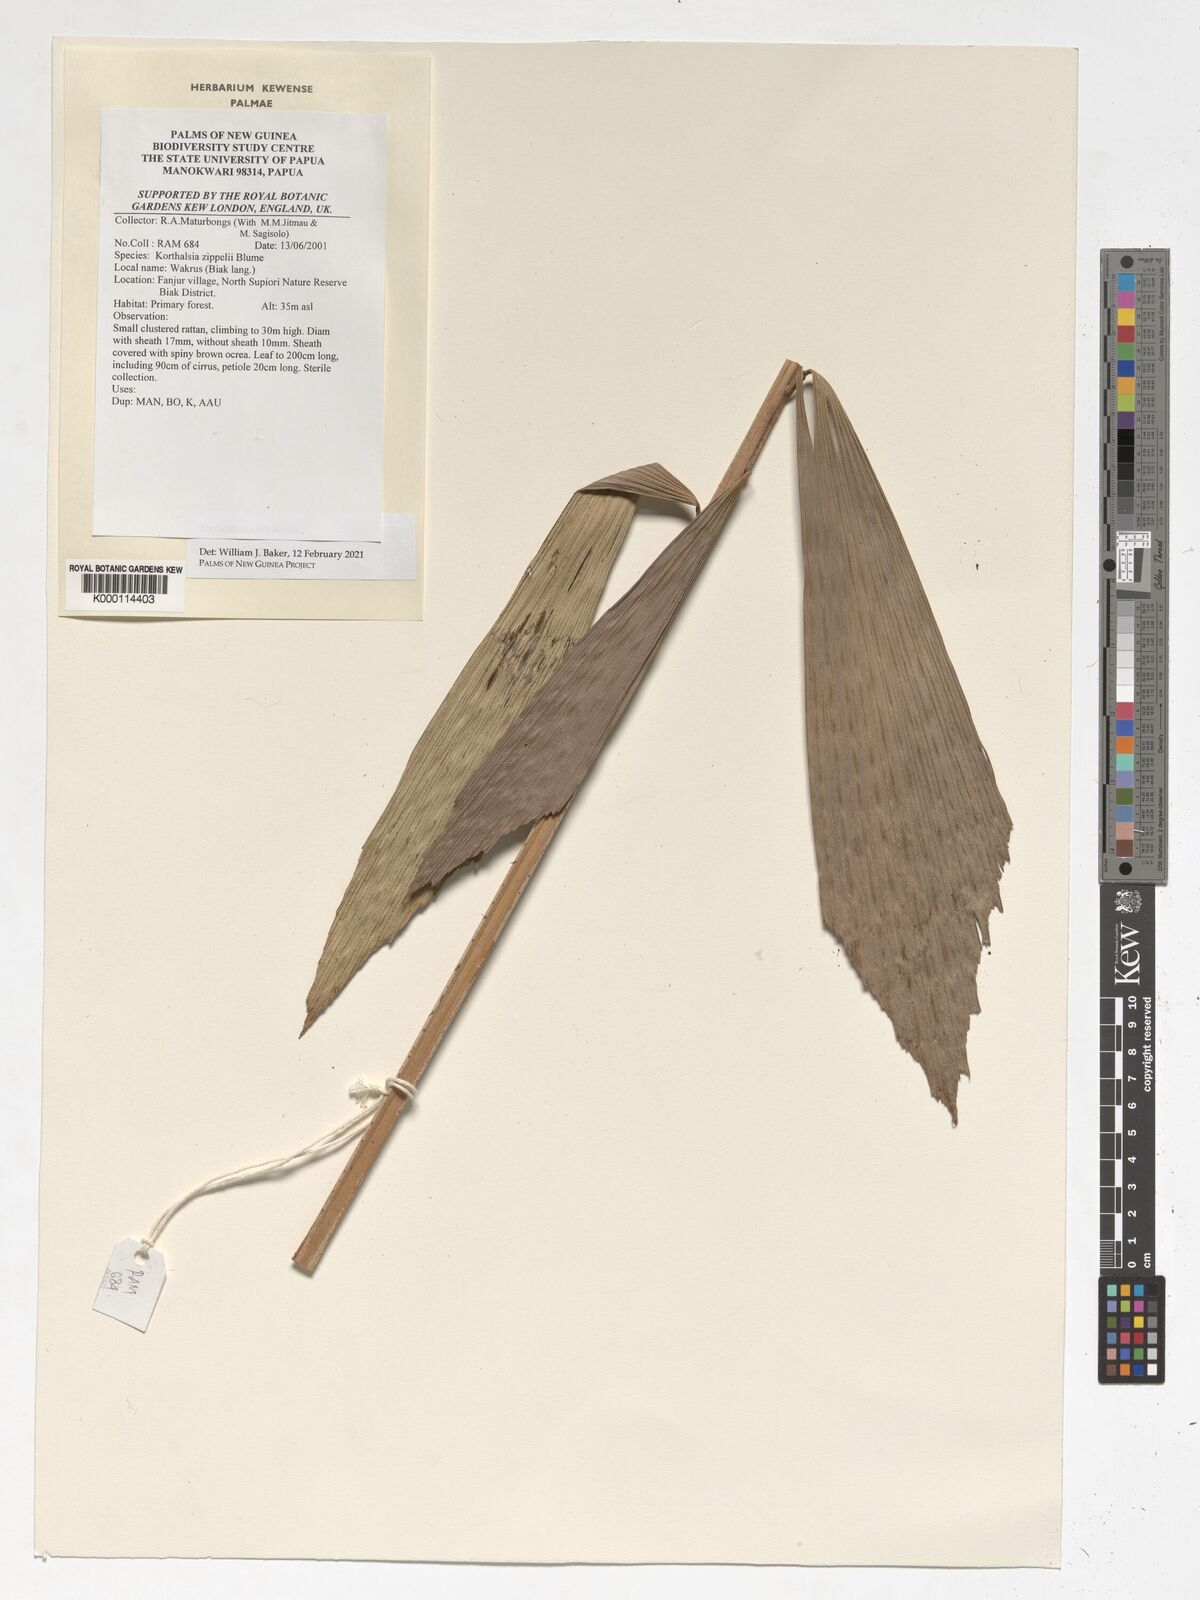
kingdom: Plantae
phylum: Tracheophyta
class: Liliopsida
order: Arecales
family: Arecaceae
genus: Korthalsia
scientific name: Korthalsia zippelii
